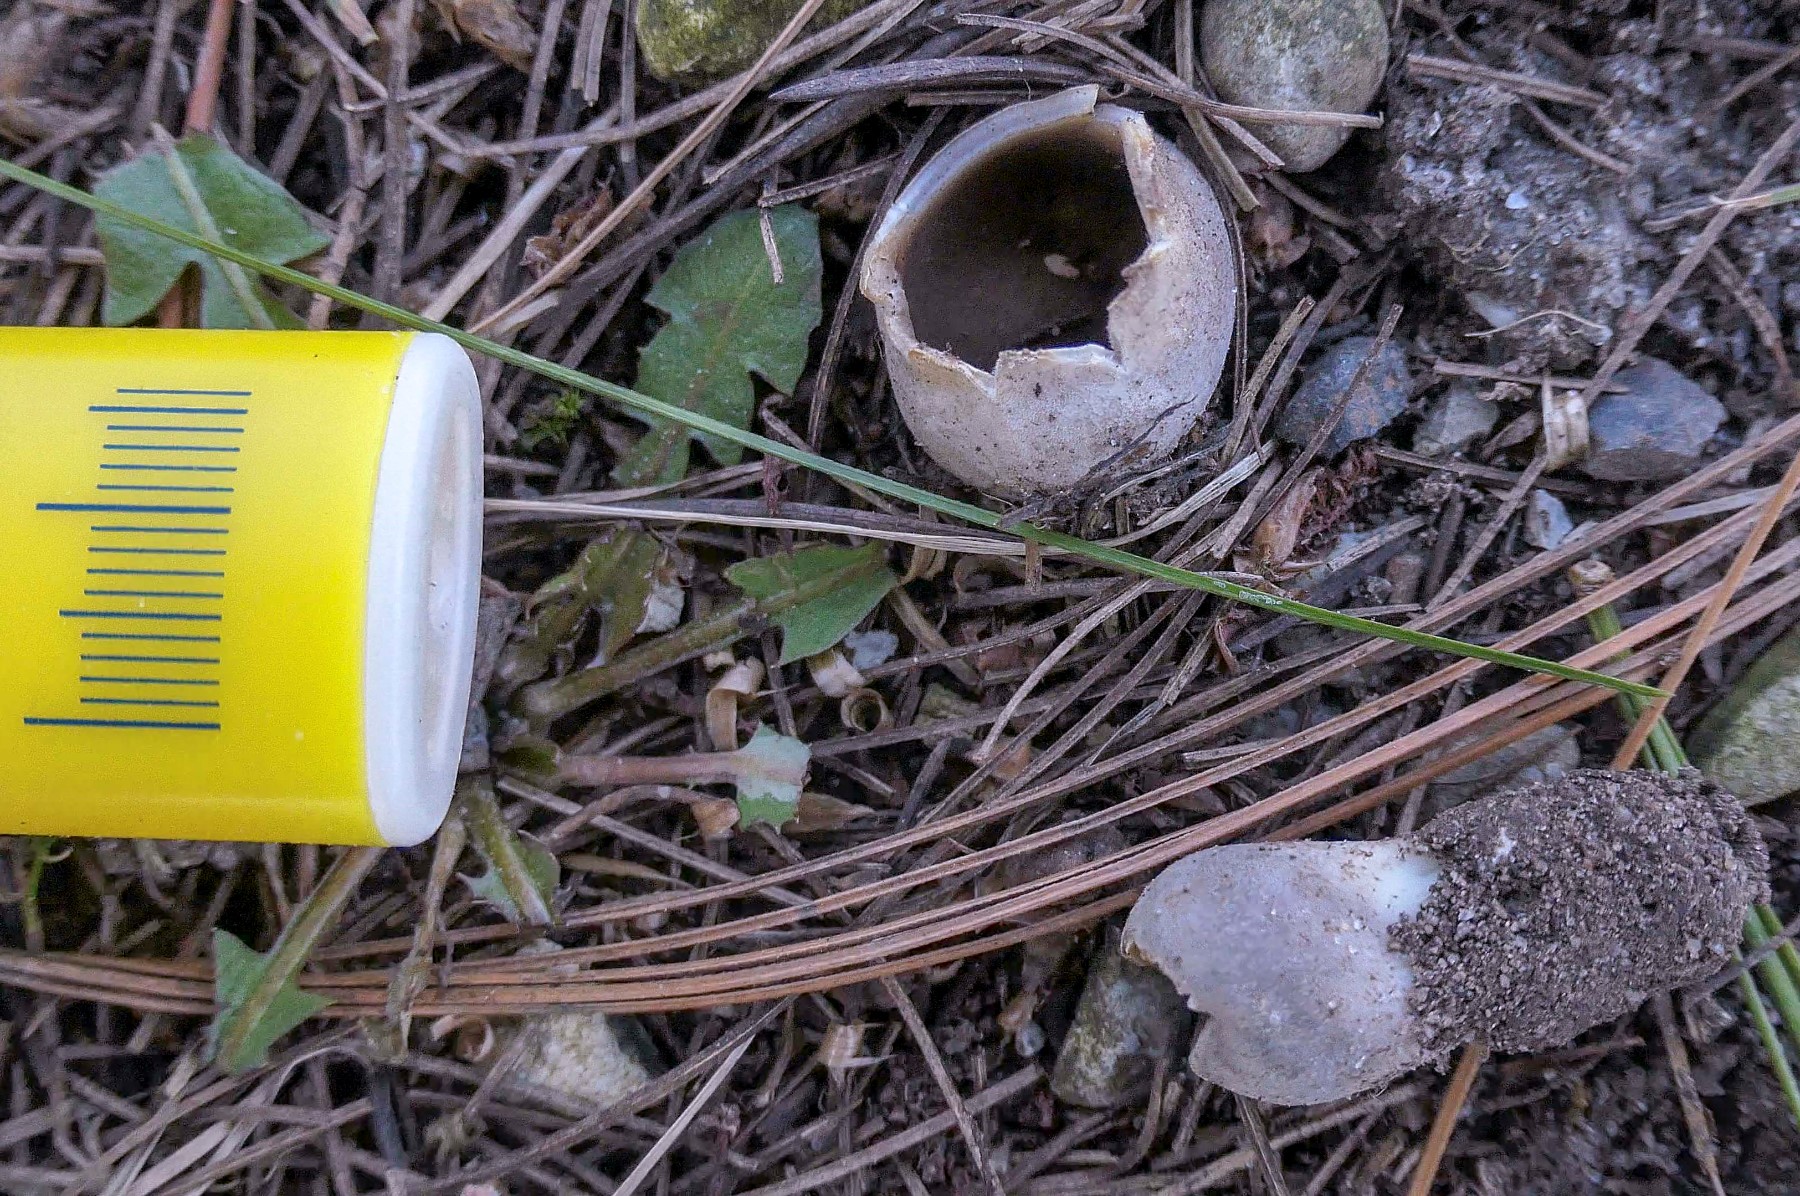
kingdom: Fungi
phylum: Ascomycota
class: Pezizomycetes
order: Pezizales
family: Helvellaceae
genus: Dissingia
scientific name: Dissingia leucomelaena
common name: sorthvid foldhat
